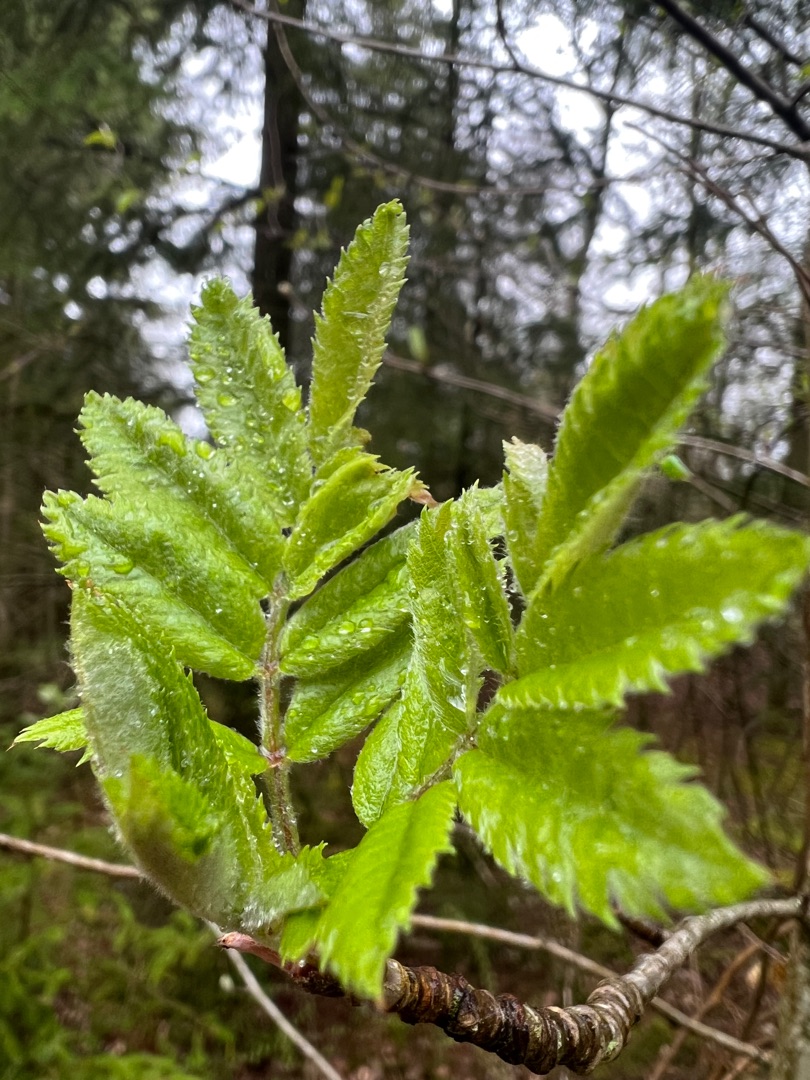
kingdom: Plantae
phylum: Tracheophyta
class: Magnoliopsida
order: Rosales
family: Rosaceae
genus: Sorbus
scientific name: Sorbus aucuparia
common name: Almindelig røn
